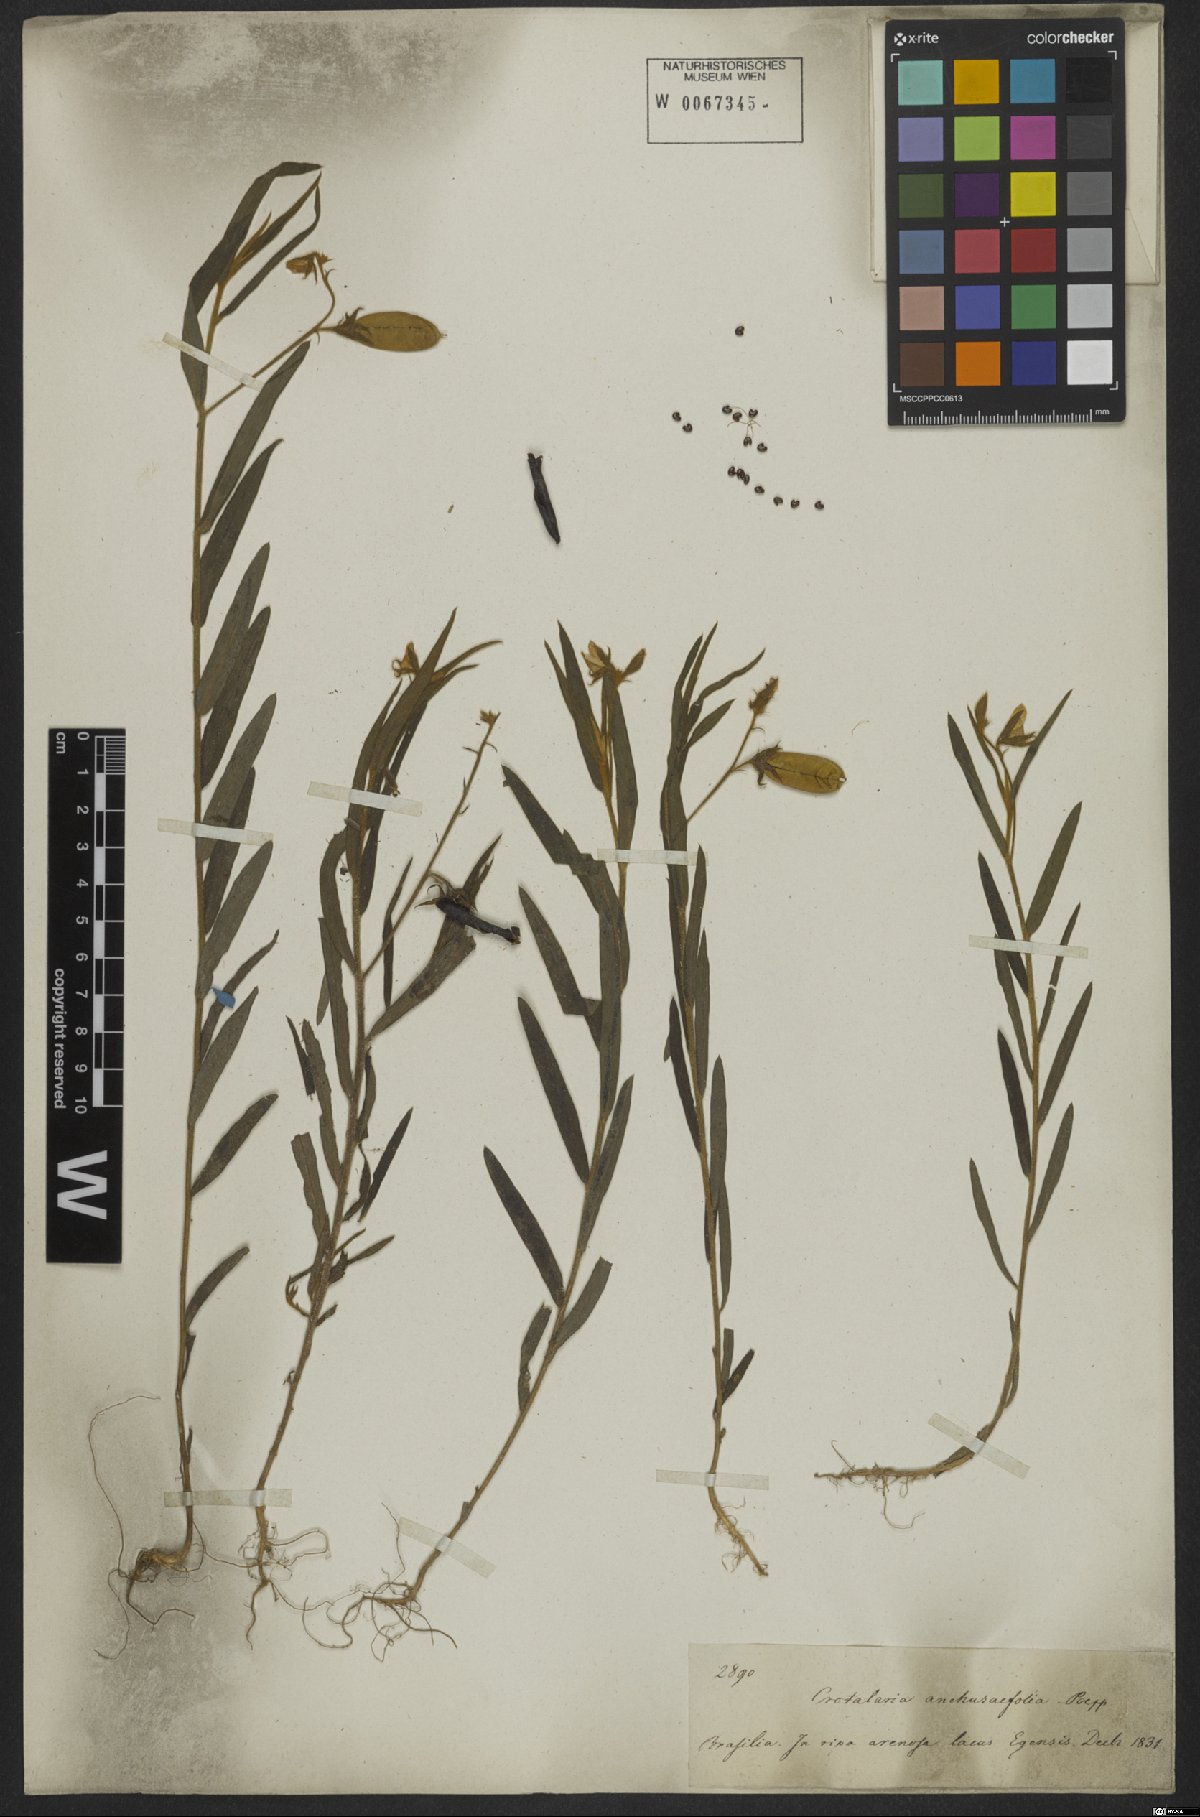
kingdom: Plantae
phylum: Tracheophyta
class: Magnoliopsida
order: Fabales
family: Fabaceae
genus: Crotalaria
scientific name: Crotalaria
